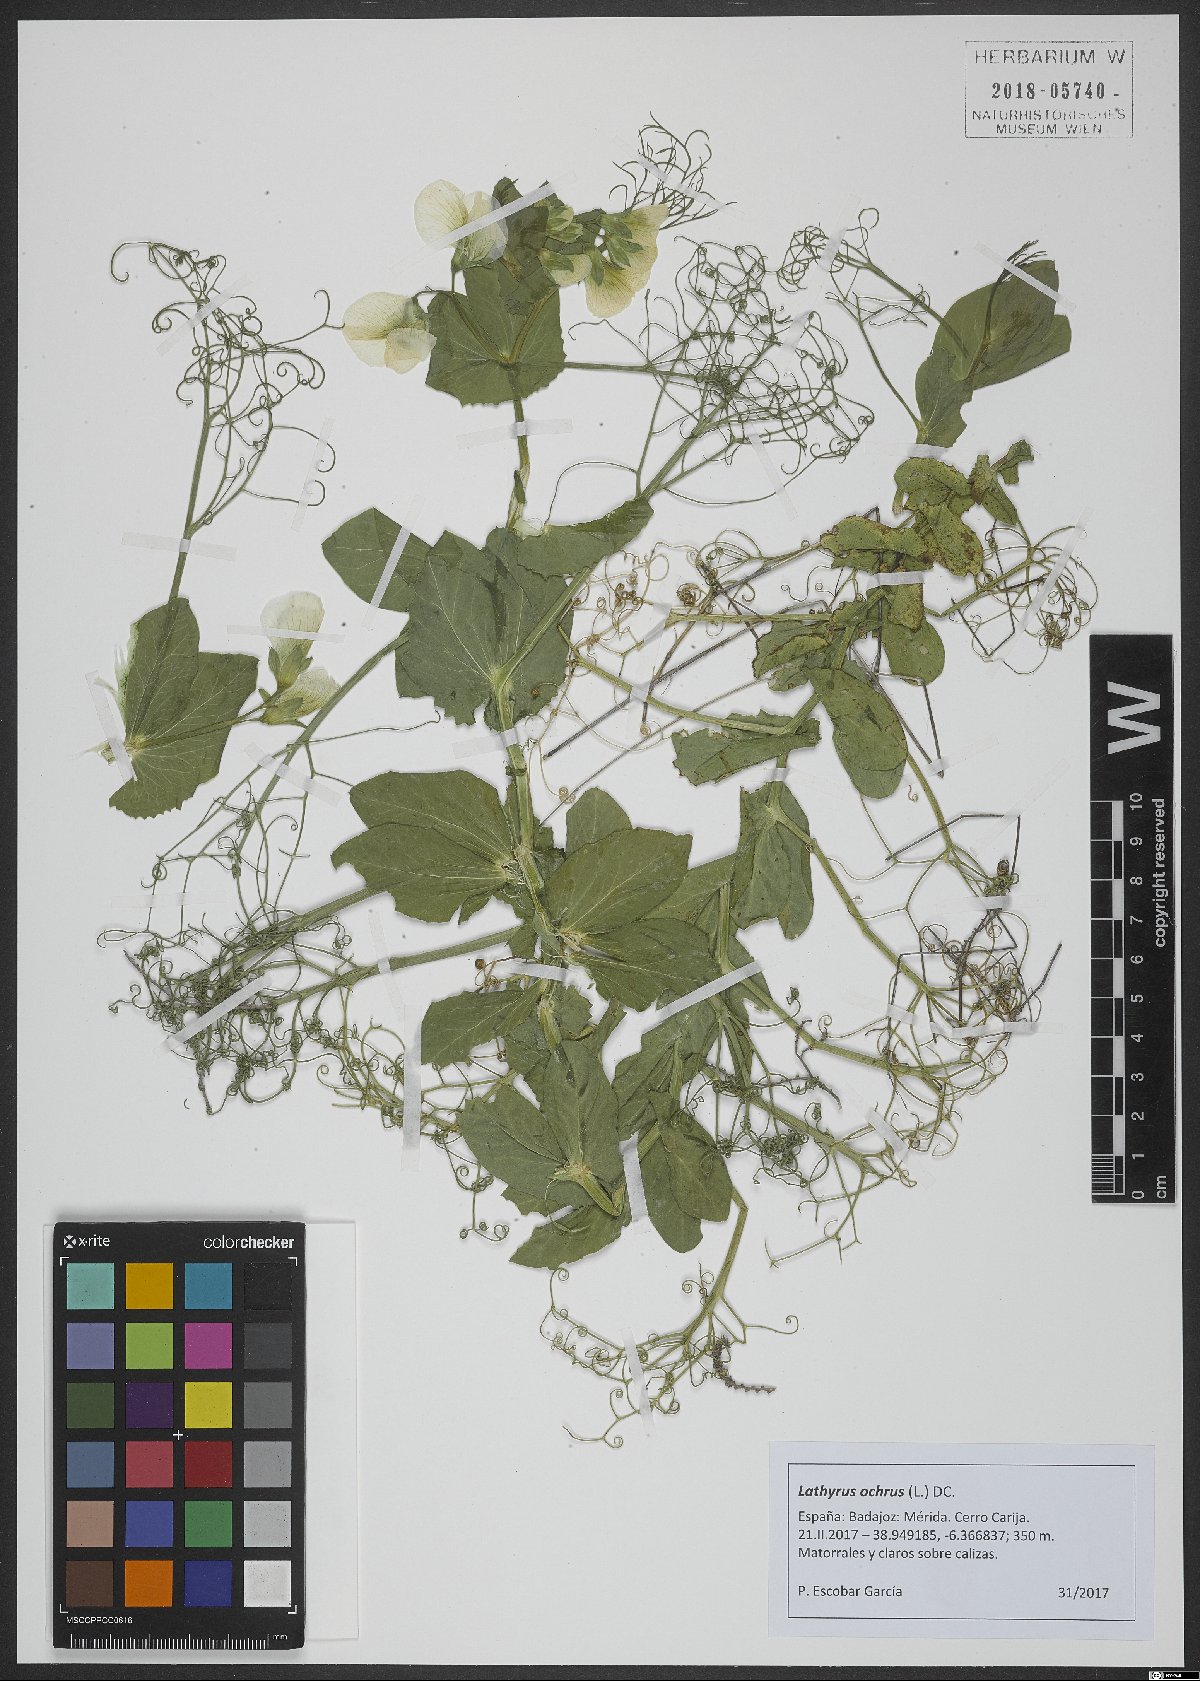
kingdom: Plantae
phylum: Tracheophyta
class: Magnoliopsida
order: Fabales
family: Fabaceae
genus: Lathyrus
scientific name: Lathyrus ochrus
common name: Winged vetchling
